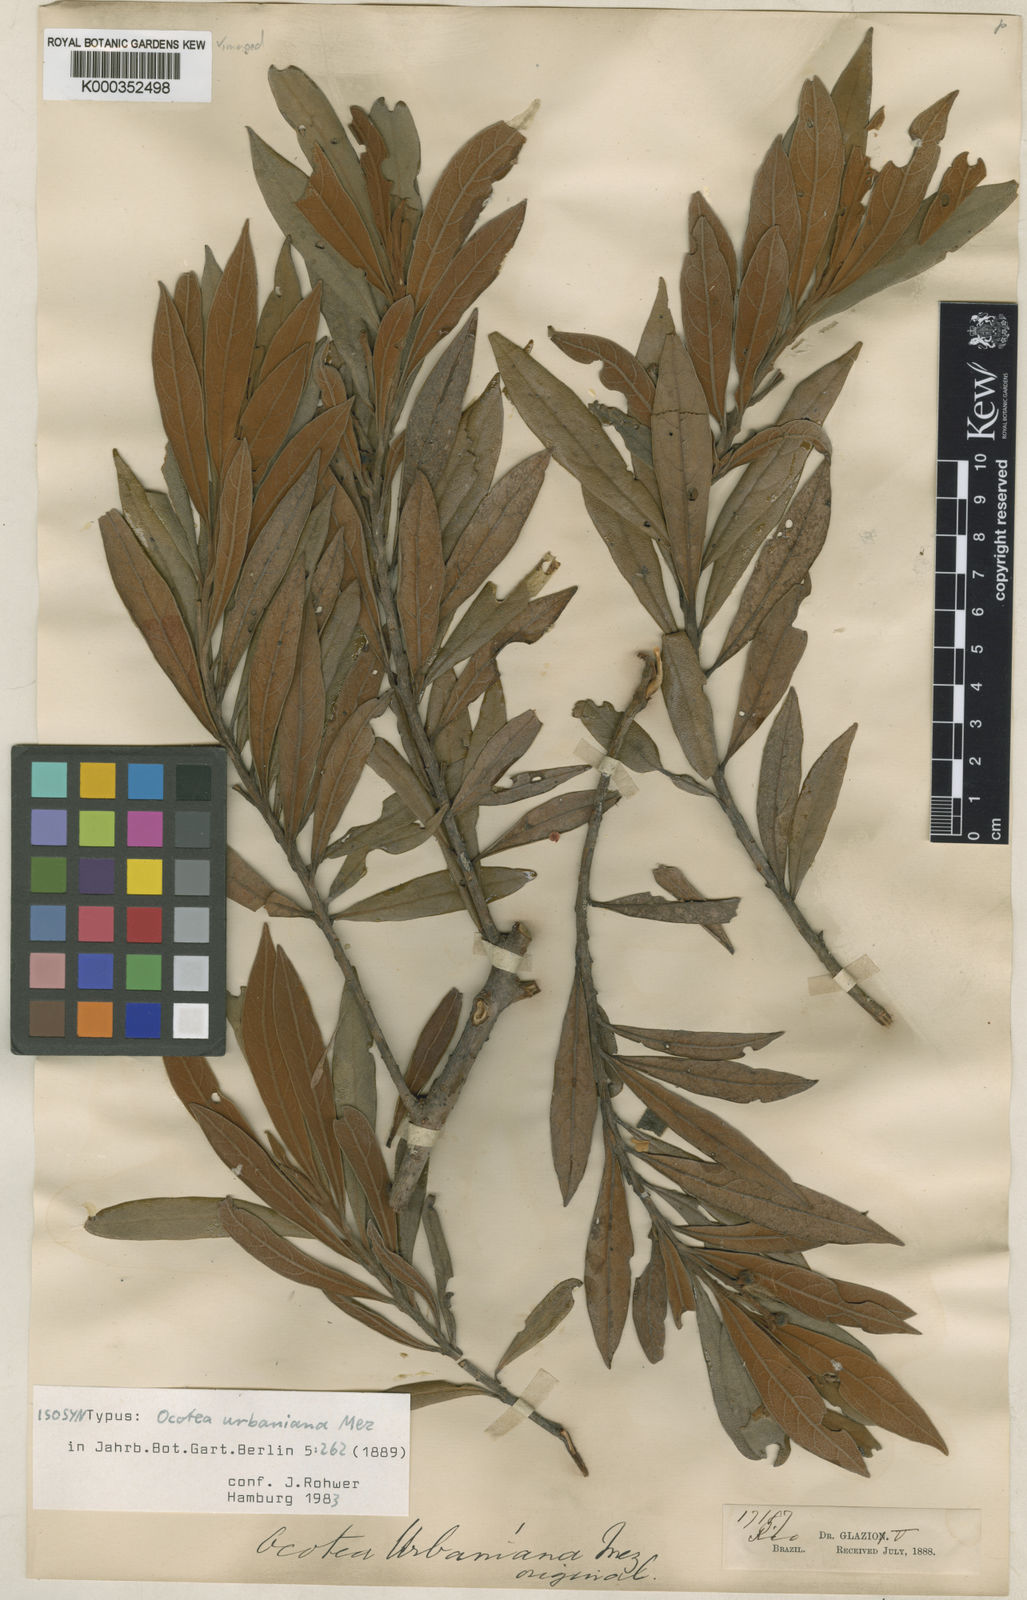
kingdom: Plantae
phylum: Tracheophyta
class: Magnoliopsida
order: Laurales
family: Lauraceae
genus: Ocotea
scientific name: Ocotea urbaniana
